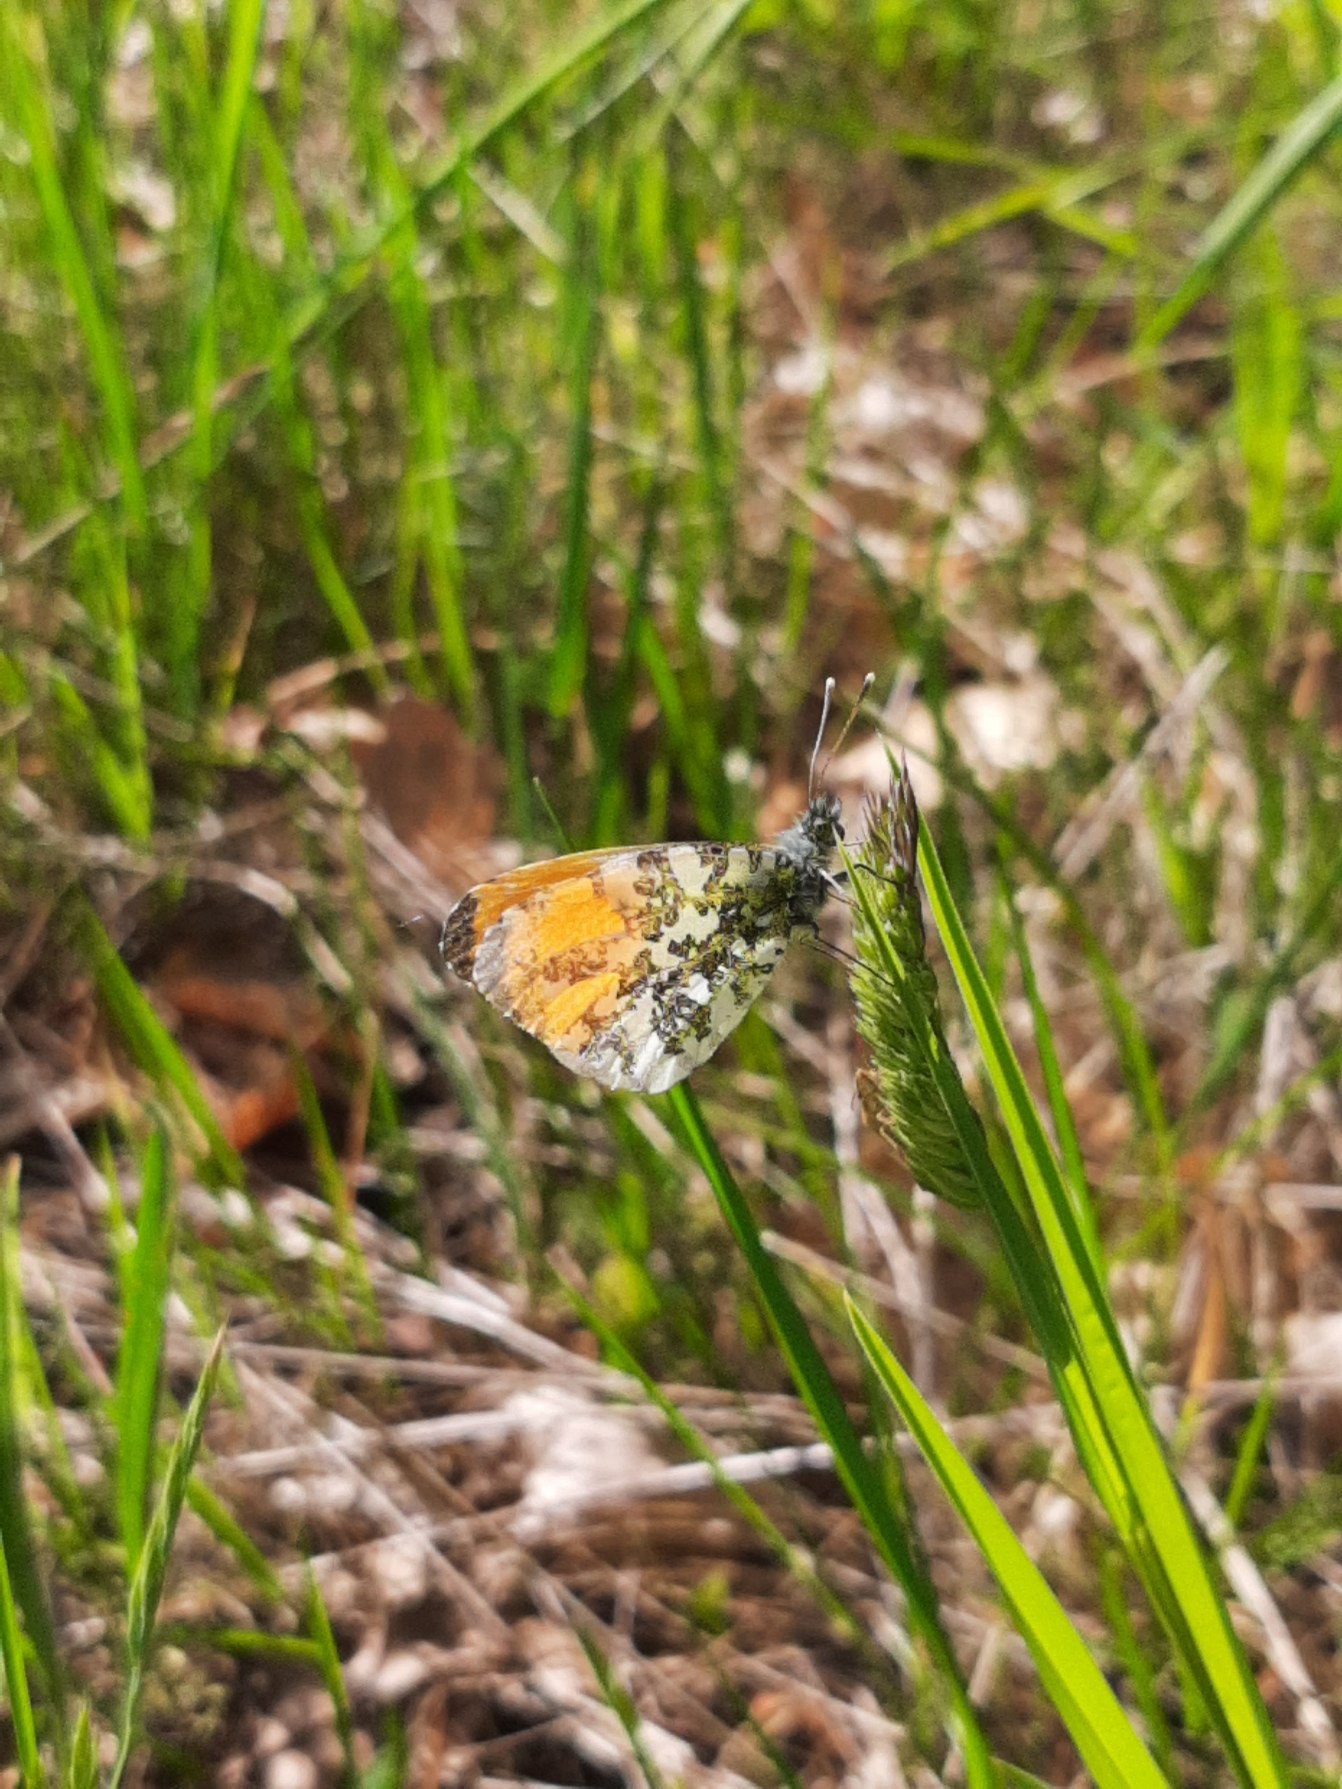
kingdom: Animalia
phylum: Arthropoda
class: Insecta
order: Lepidoptera
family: Pieridae
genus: Anthocharis
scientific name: Anthocharis cardamines
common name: Aurora
